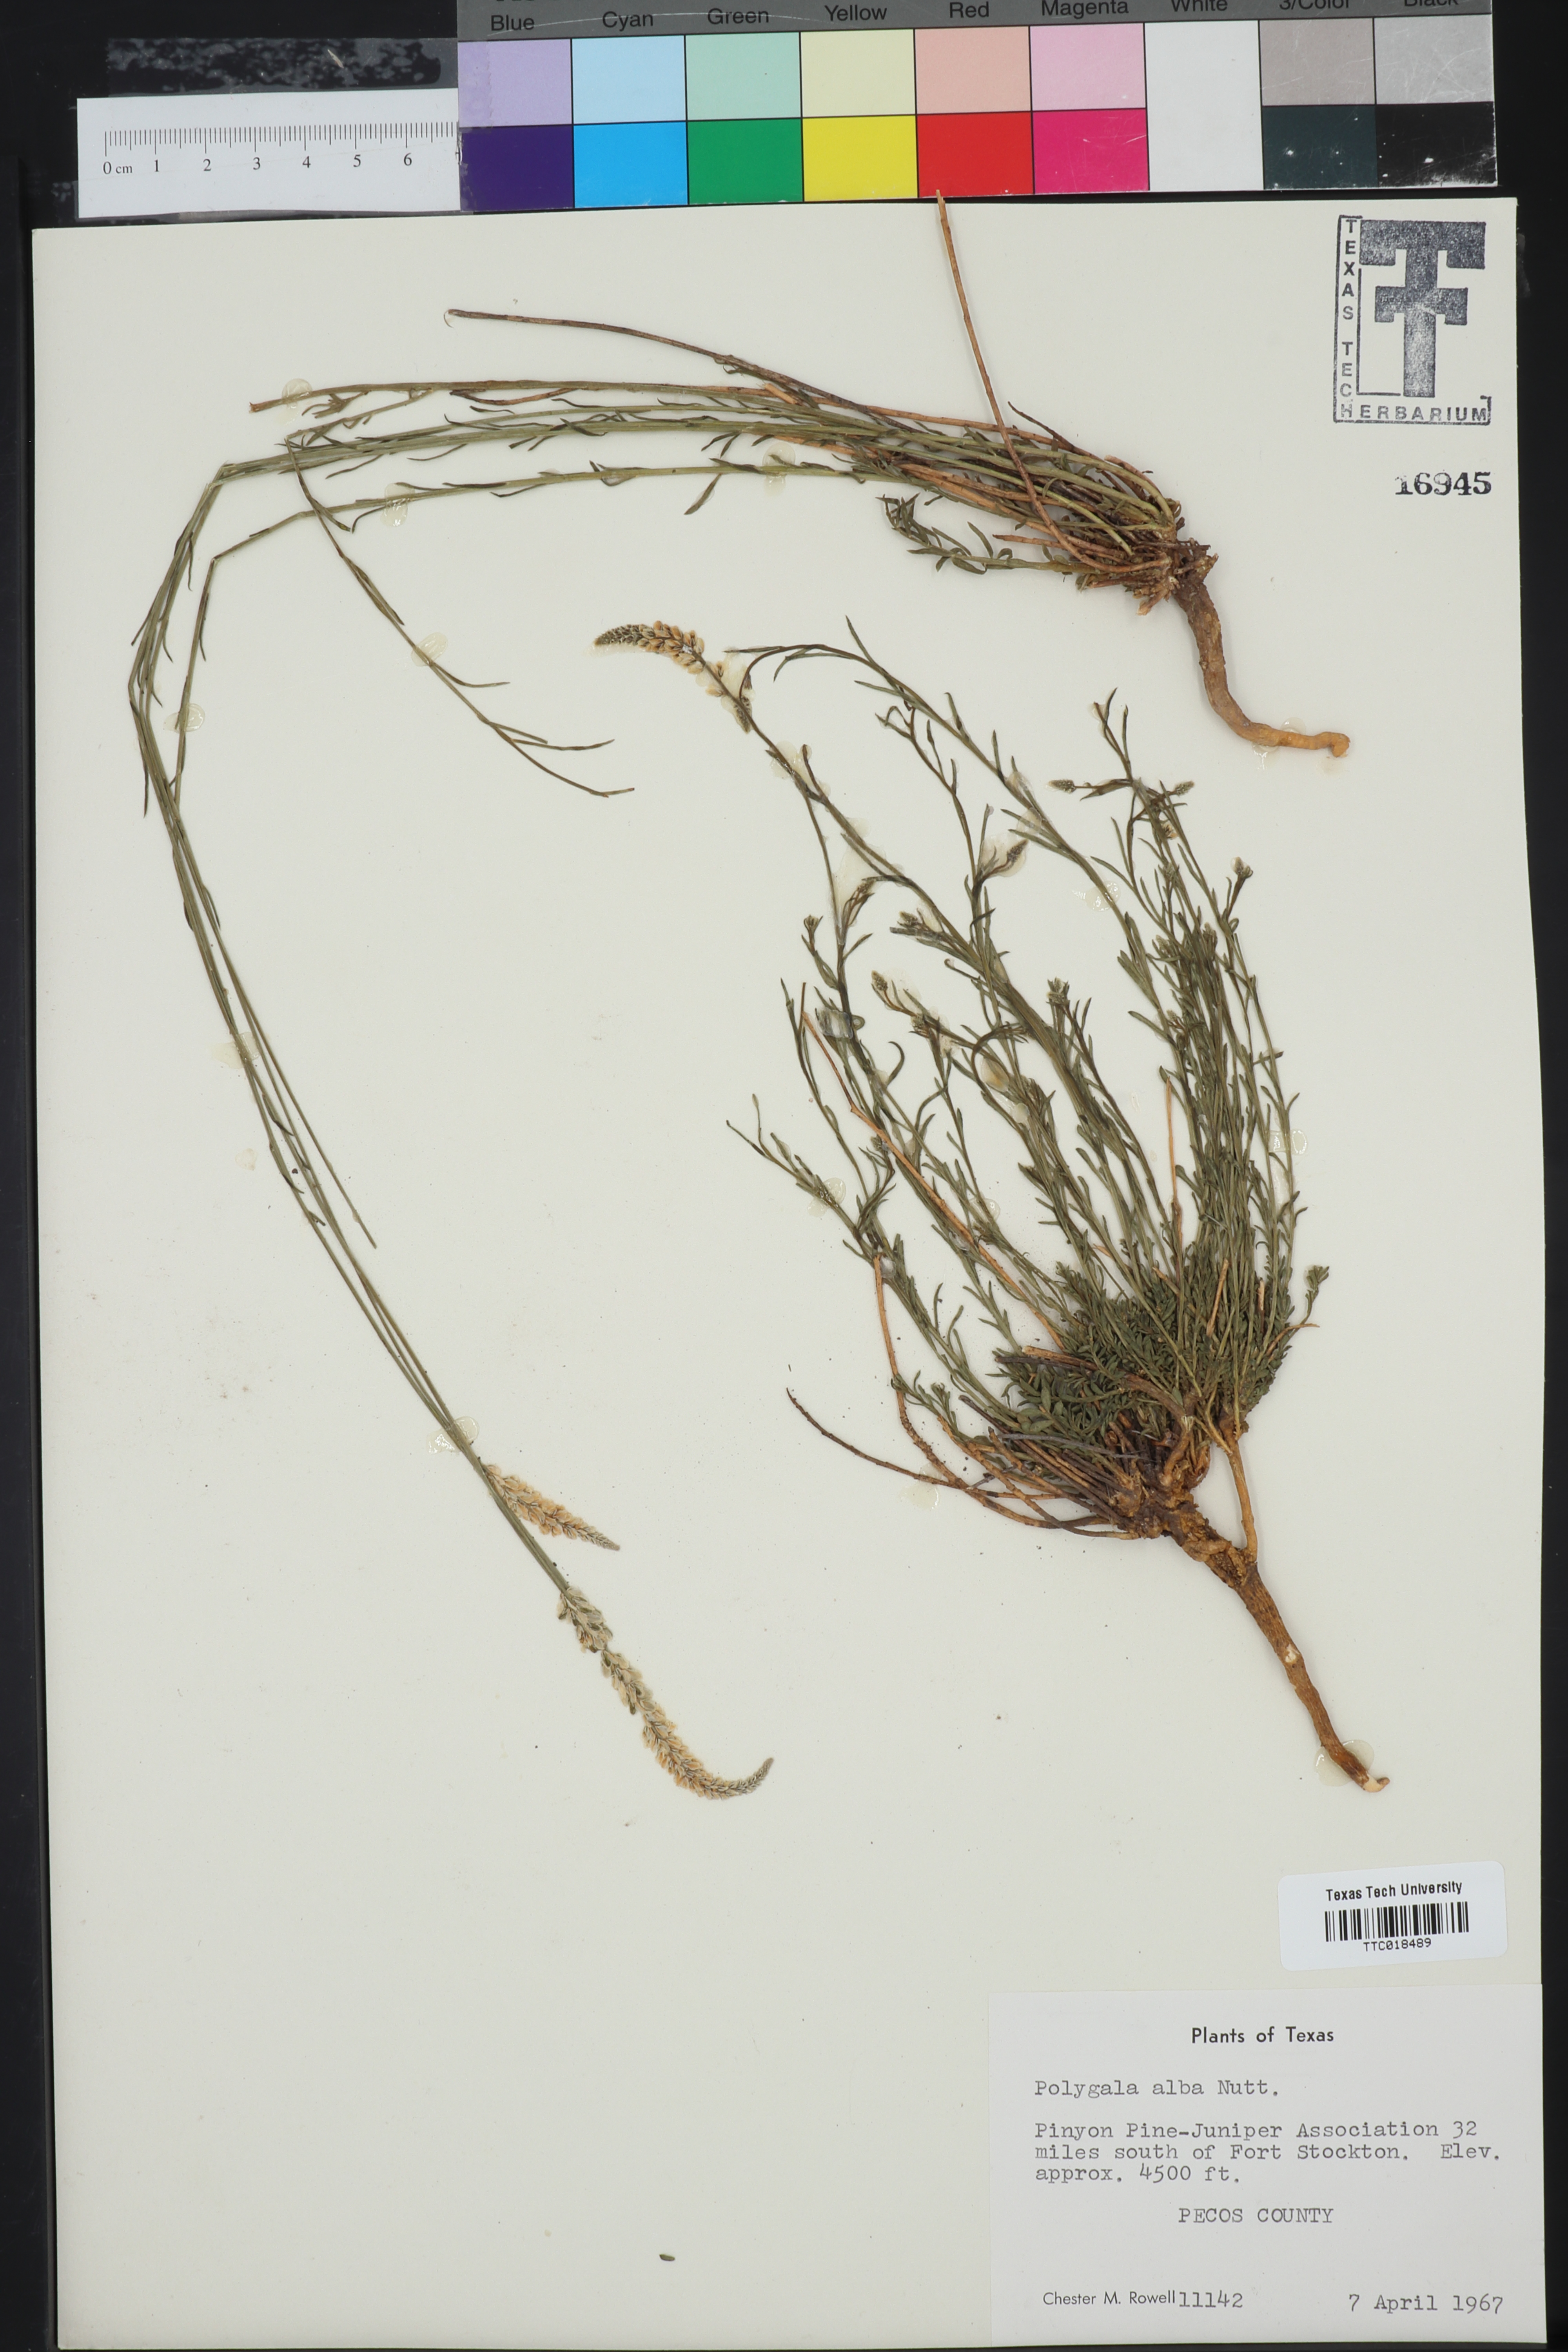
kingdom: Plantae
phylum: Tracheophyta
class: Magnoliopsida
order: Fabales
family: Polygalaceae
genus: Polygala
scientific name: Polygala alba
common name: White milkwort
